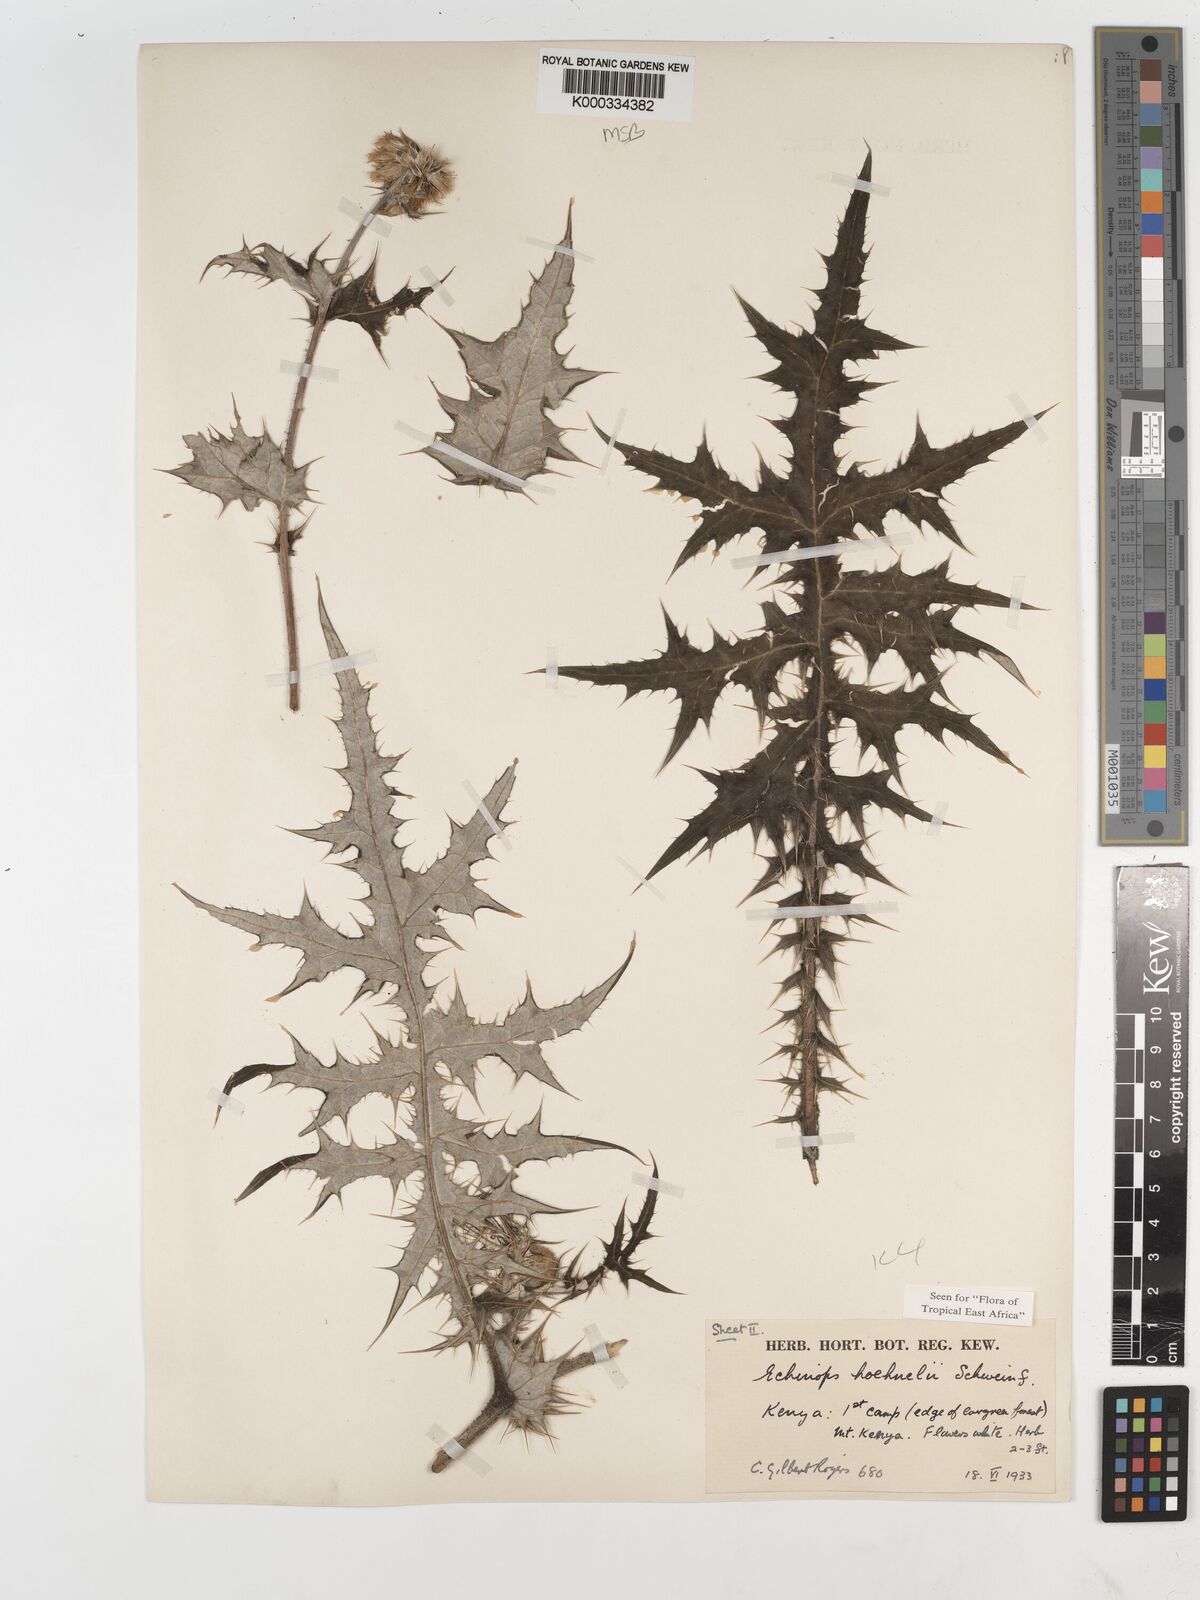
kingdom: Plantae
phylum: Tracheophyta
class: Magnoliopsida
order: Asterales
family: Asteraceae
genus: Echinops
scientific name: Echinops hoehnelii
